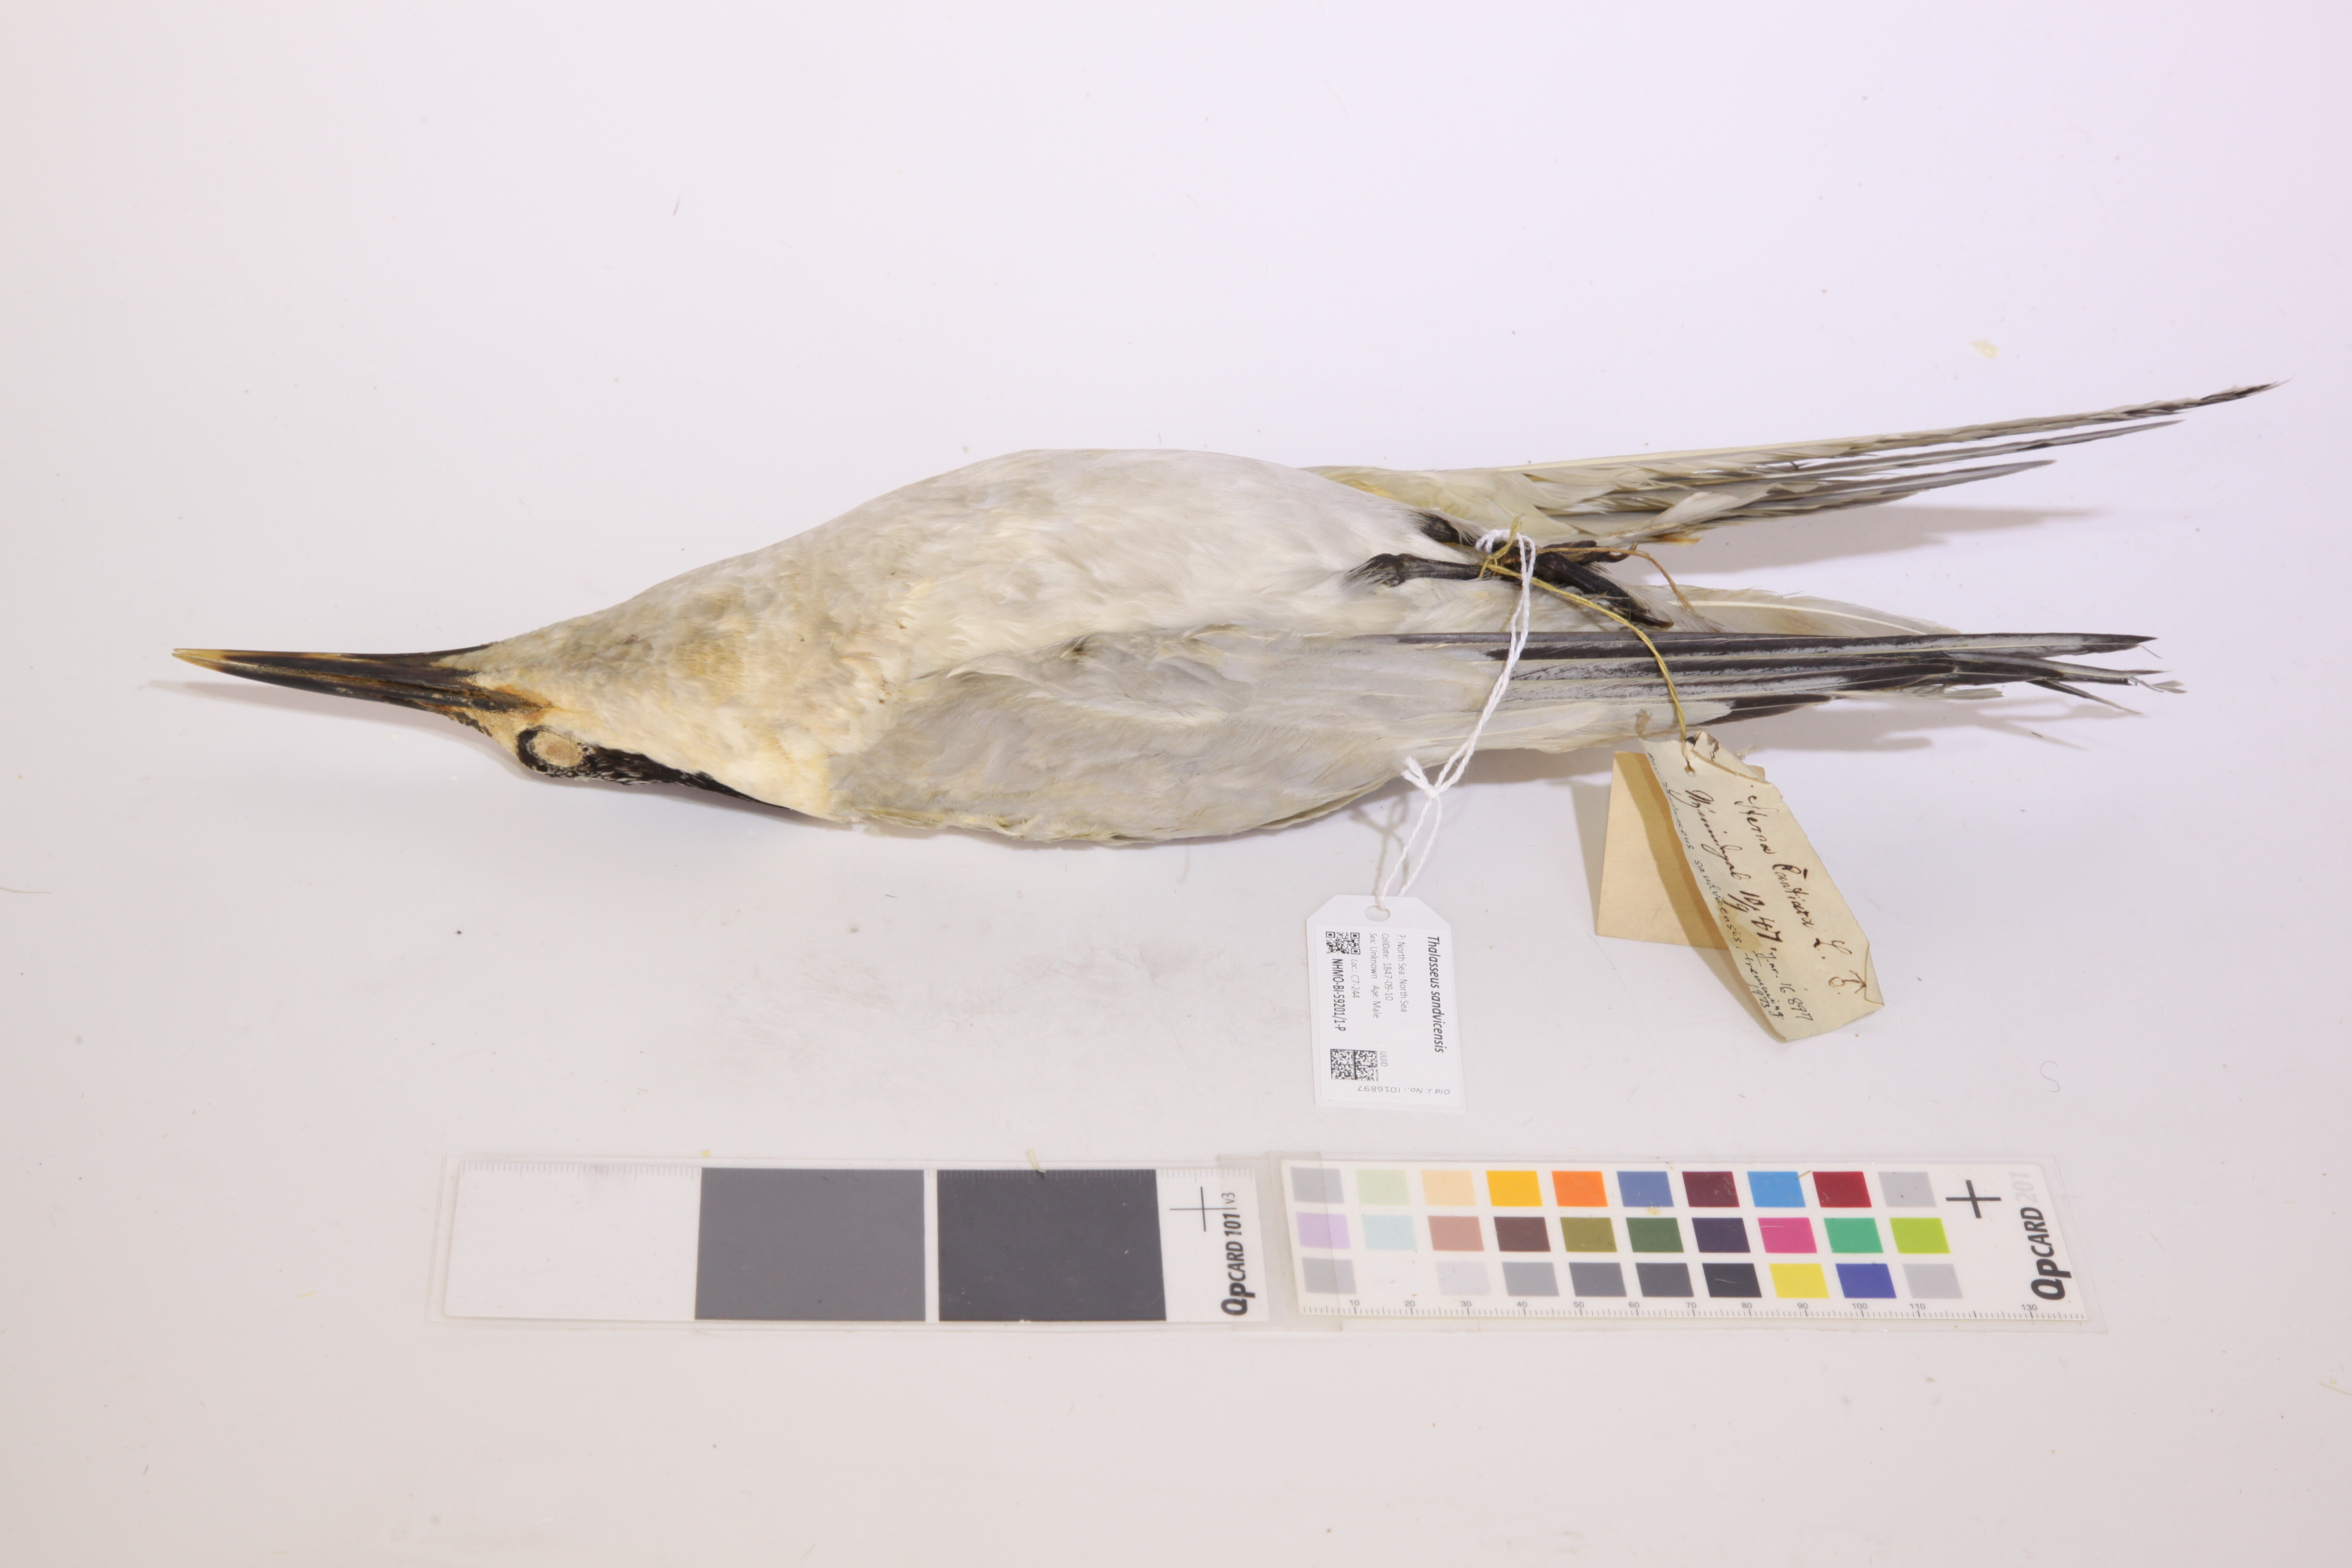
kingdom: Animalia
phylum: Chordata
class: Aves
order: Charadriiformes
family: Laridae
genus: Thalasseus
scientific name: Thalasseus sandvicensis
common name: Sandwich tern
